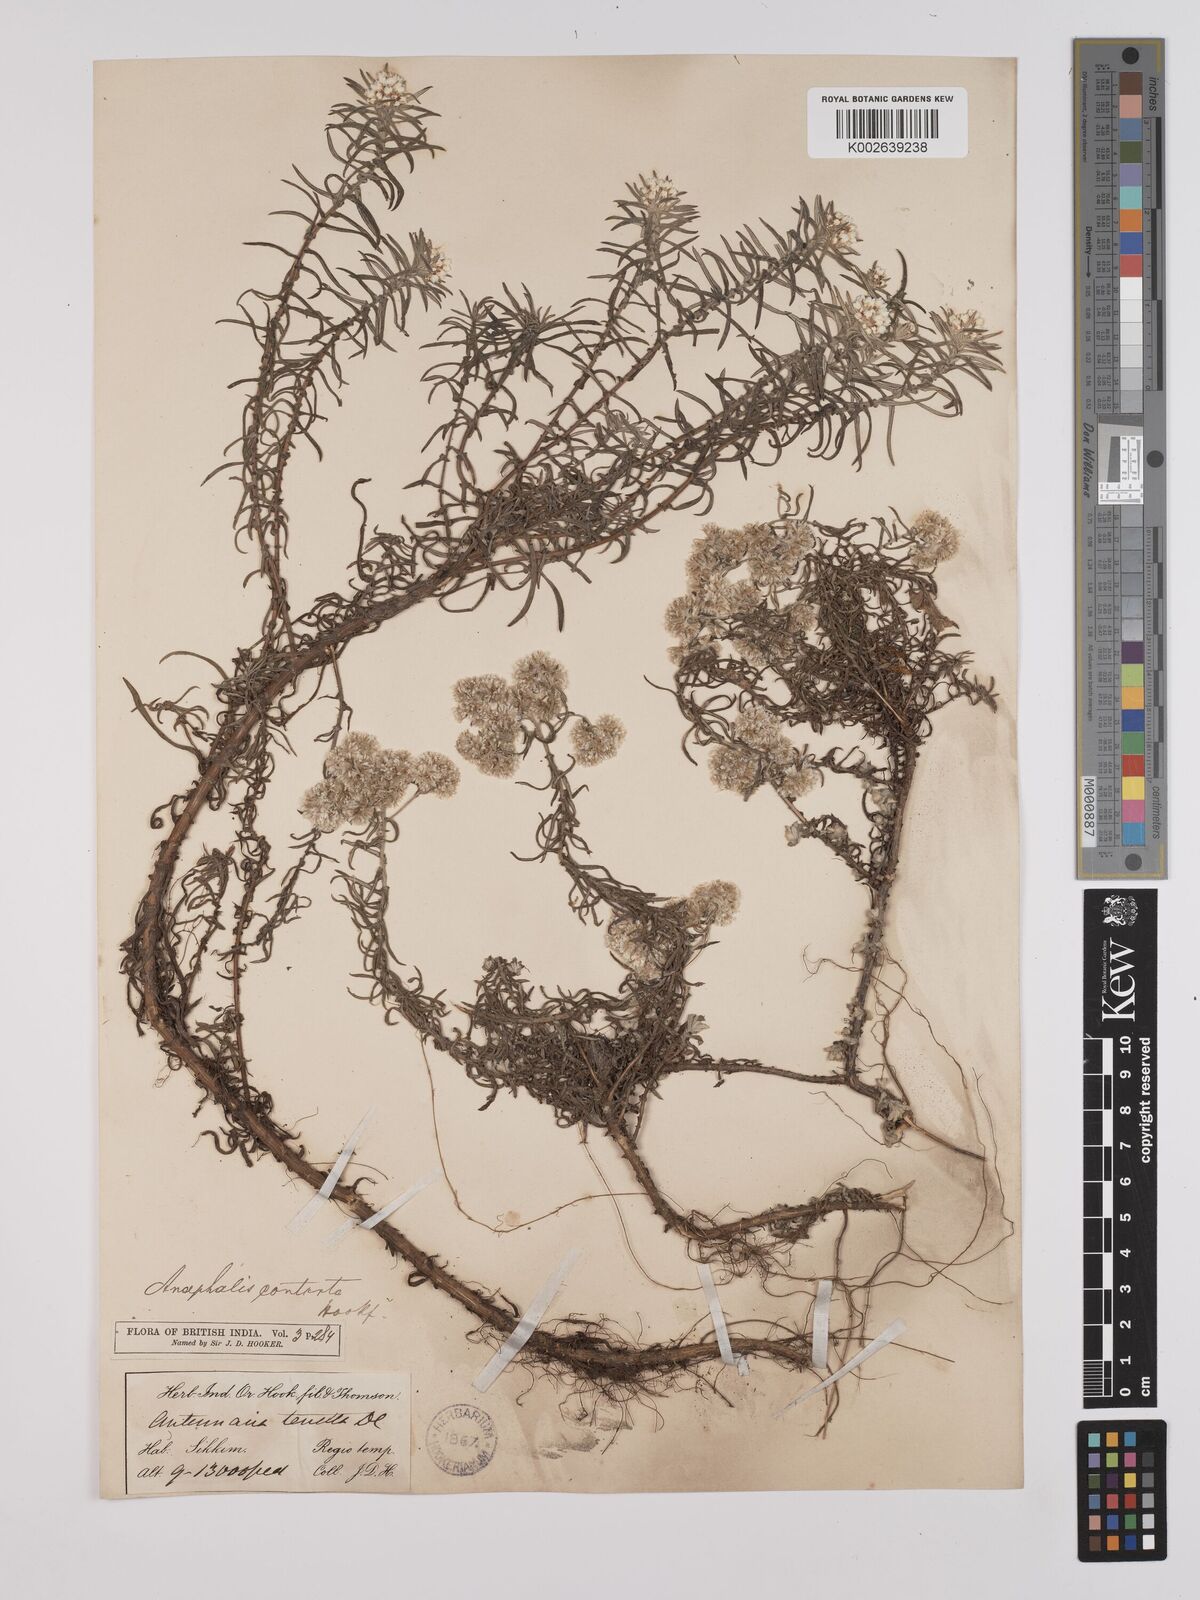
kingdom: Plantae
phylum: Tracheophyta
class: Magnoliopsida
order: Asterales
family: Asteraceae
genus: Anaphalis
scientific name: Anaphalis contorta
